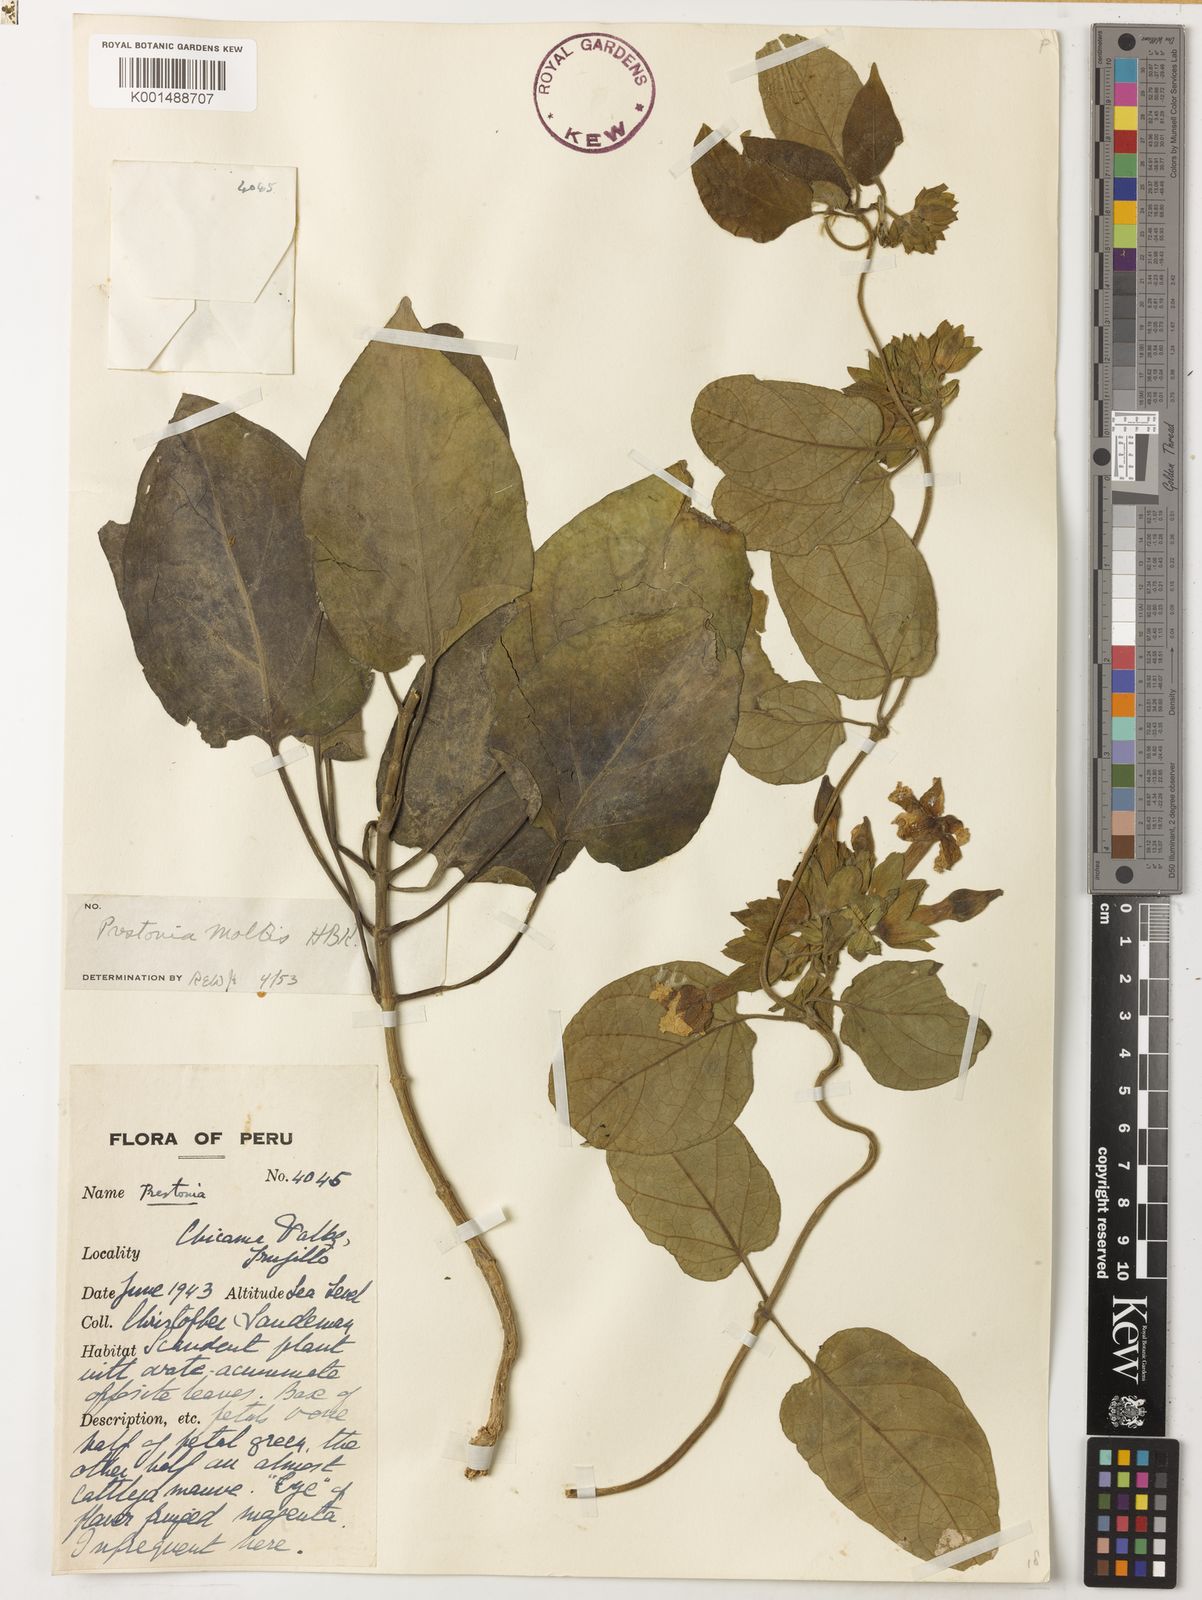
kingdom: Plantae
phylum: Tracheophyta
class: Magnoliopsida
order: Gentianales
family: Apocynaceae
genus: Prestonia
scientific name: Prestonia mollis
